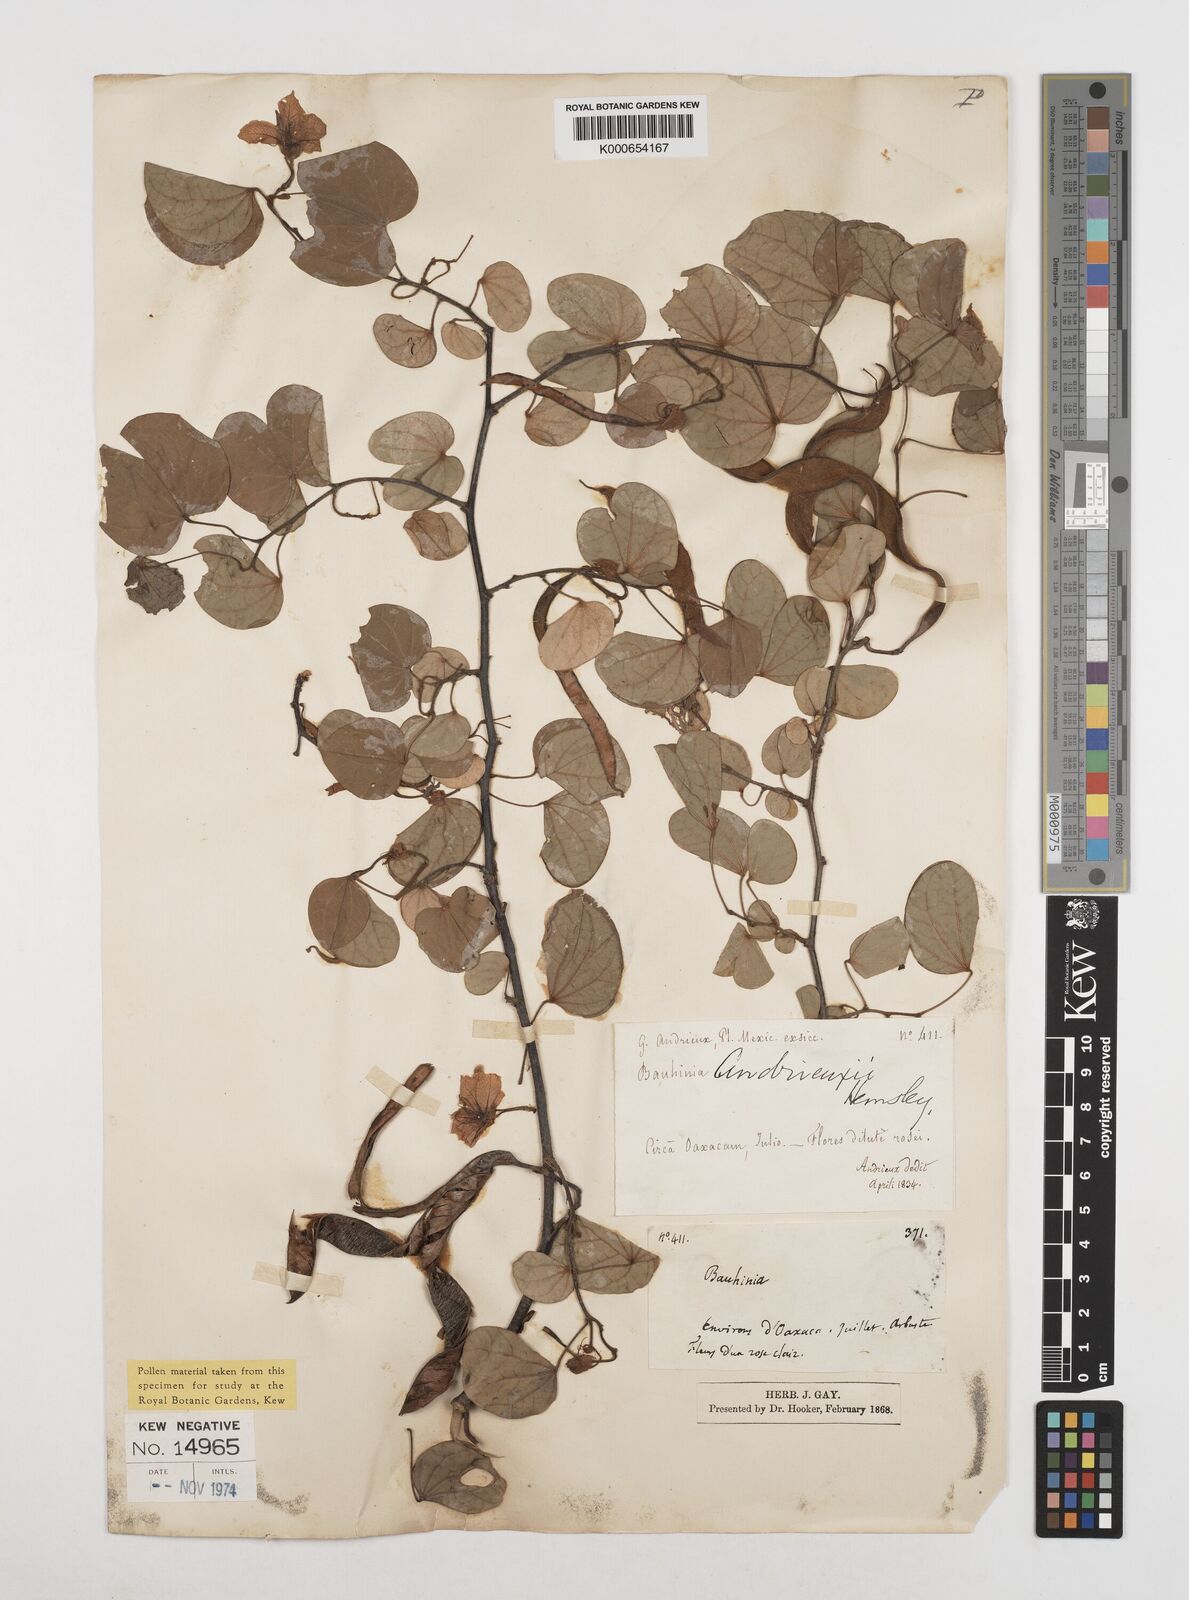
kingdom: Plantae
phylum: Tracheophyta
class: Magnoliopsida
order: Fabales
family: Fabaceae
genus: Bauhinia
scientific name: Bauhinia
